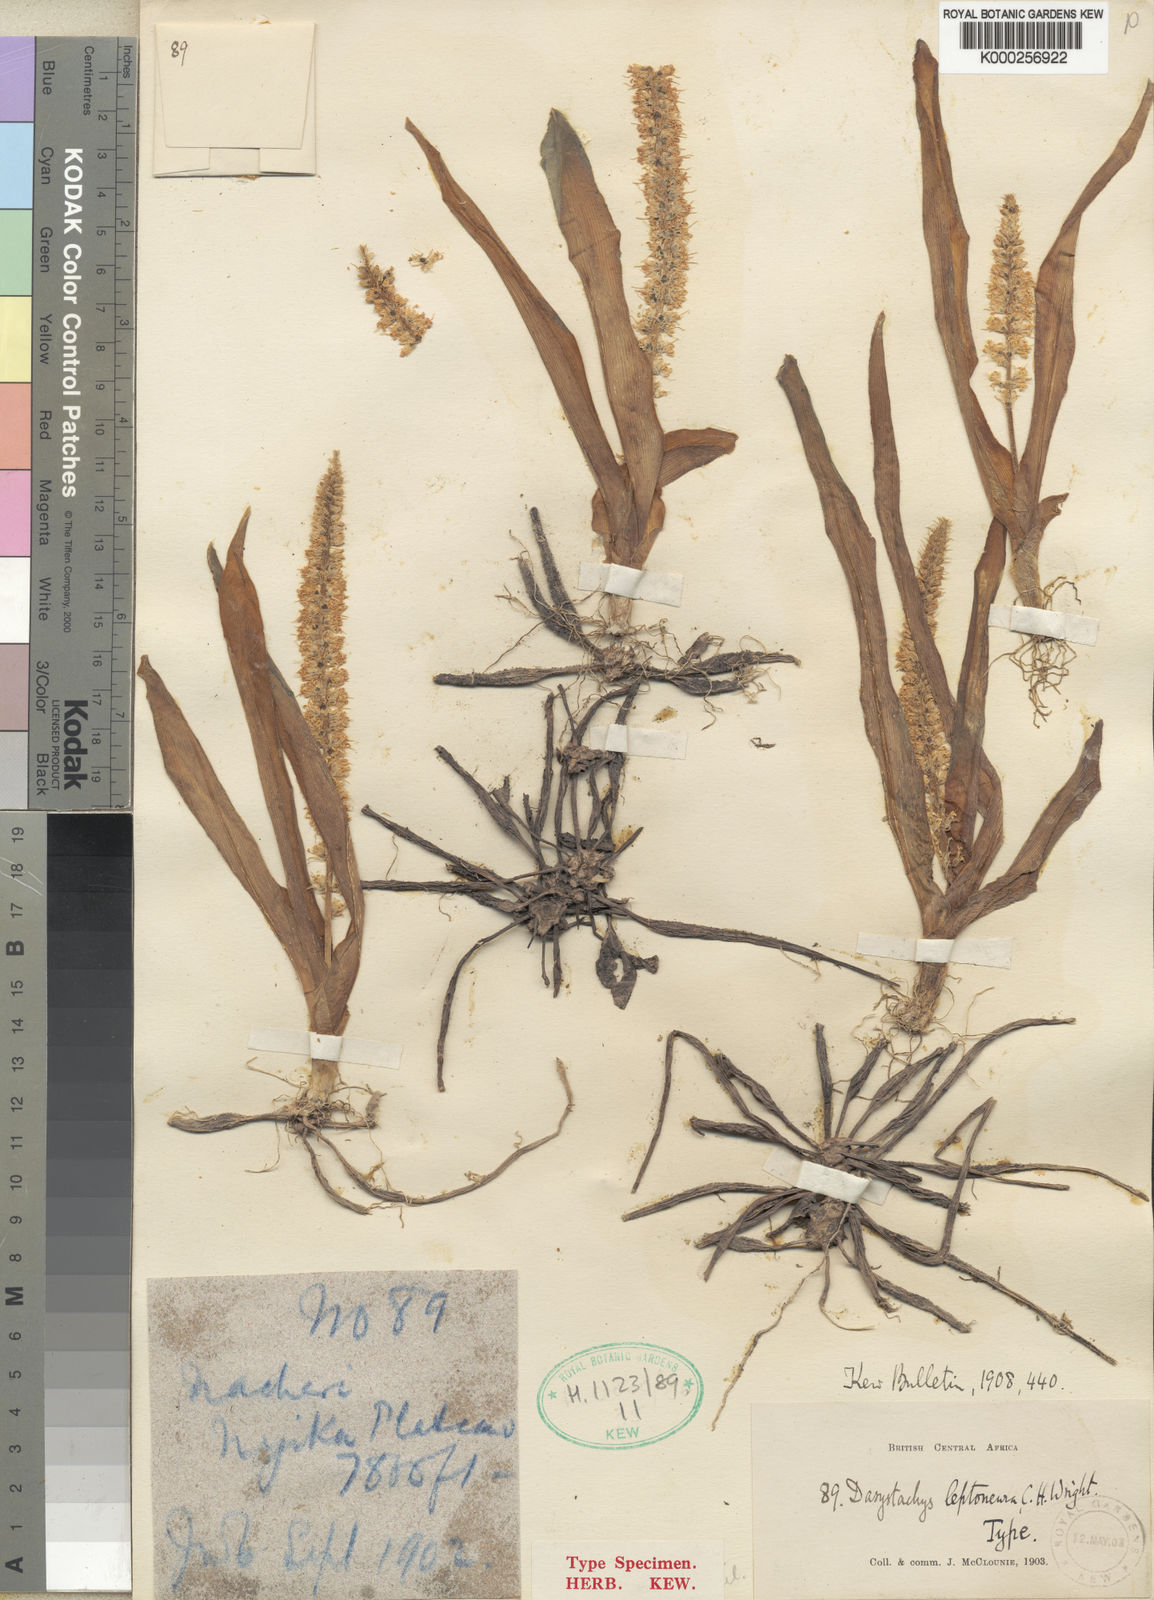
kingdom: Plantae
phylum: Tracheophyta
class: Liliopsida
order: Asparagales
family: Asparagaceae
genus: Chlorophytum
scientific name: Chlorophytum leptoneurum
